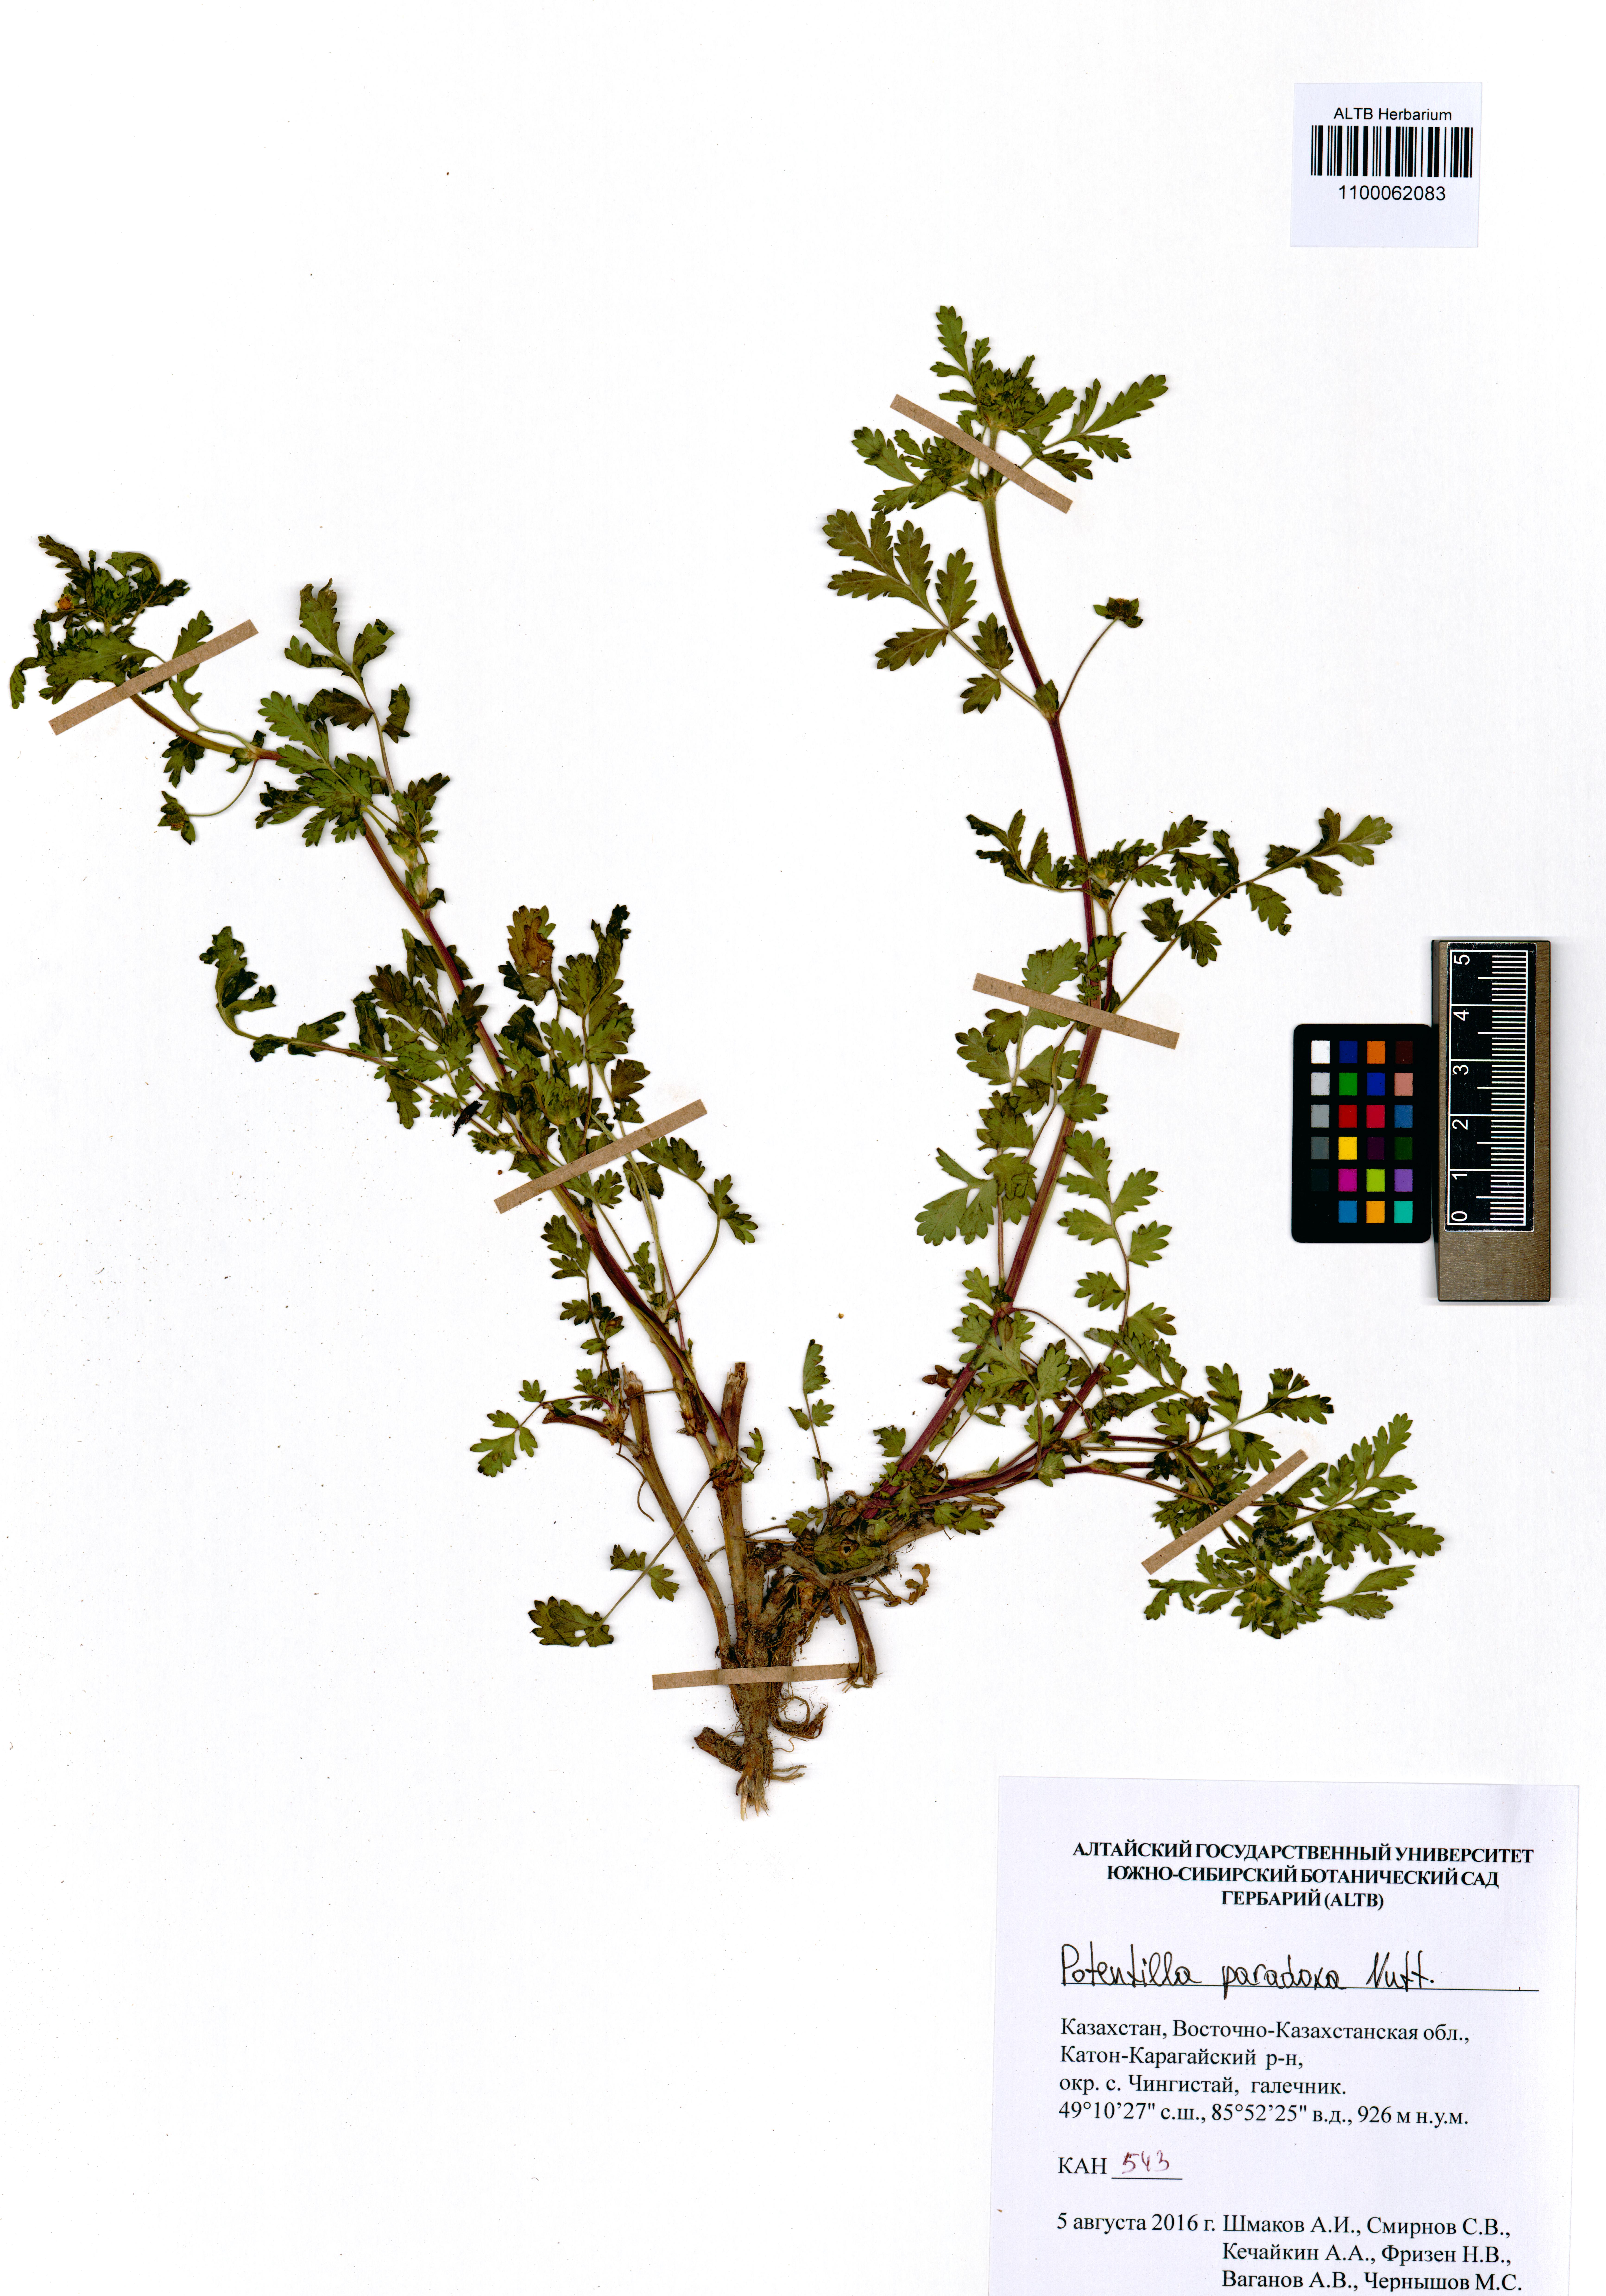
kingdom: Plantae
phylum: Tracheophyta
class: Magnoliopsida
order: Rosales
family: Rosaceae
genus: Potentilla
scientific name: Potentilla supina
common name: Prostrate cinquefoil
